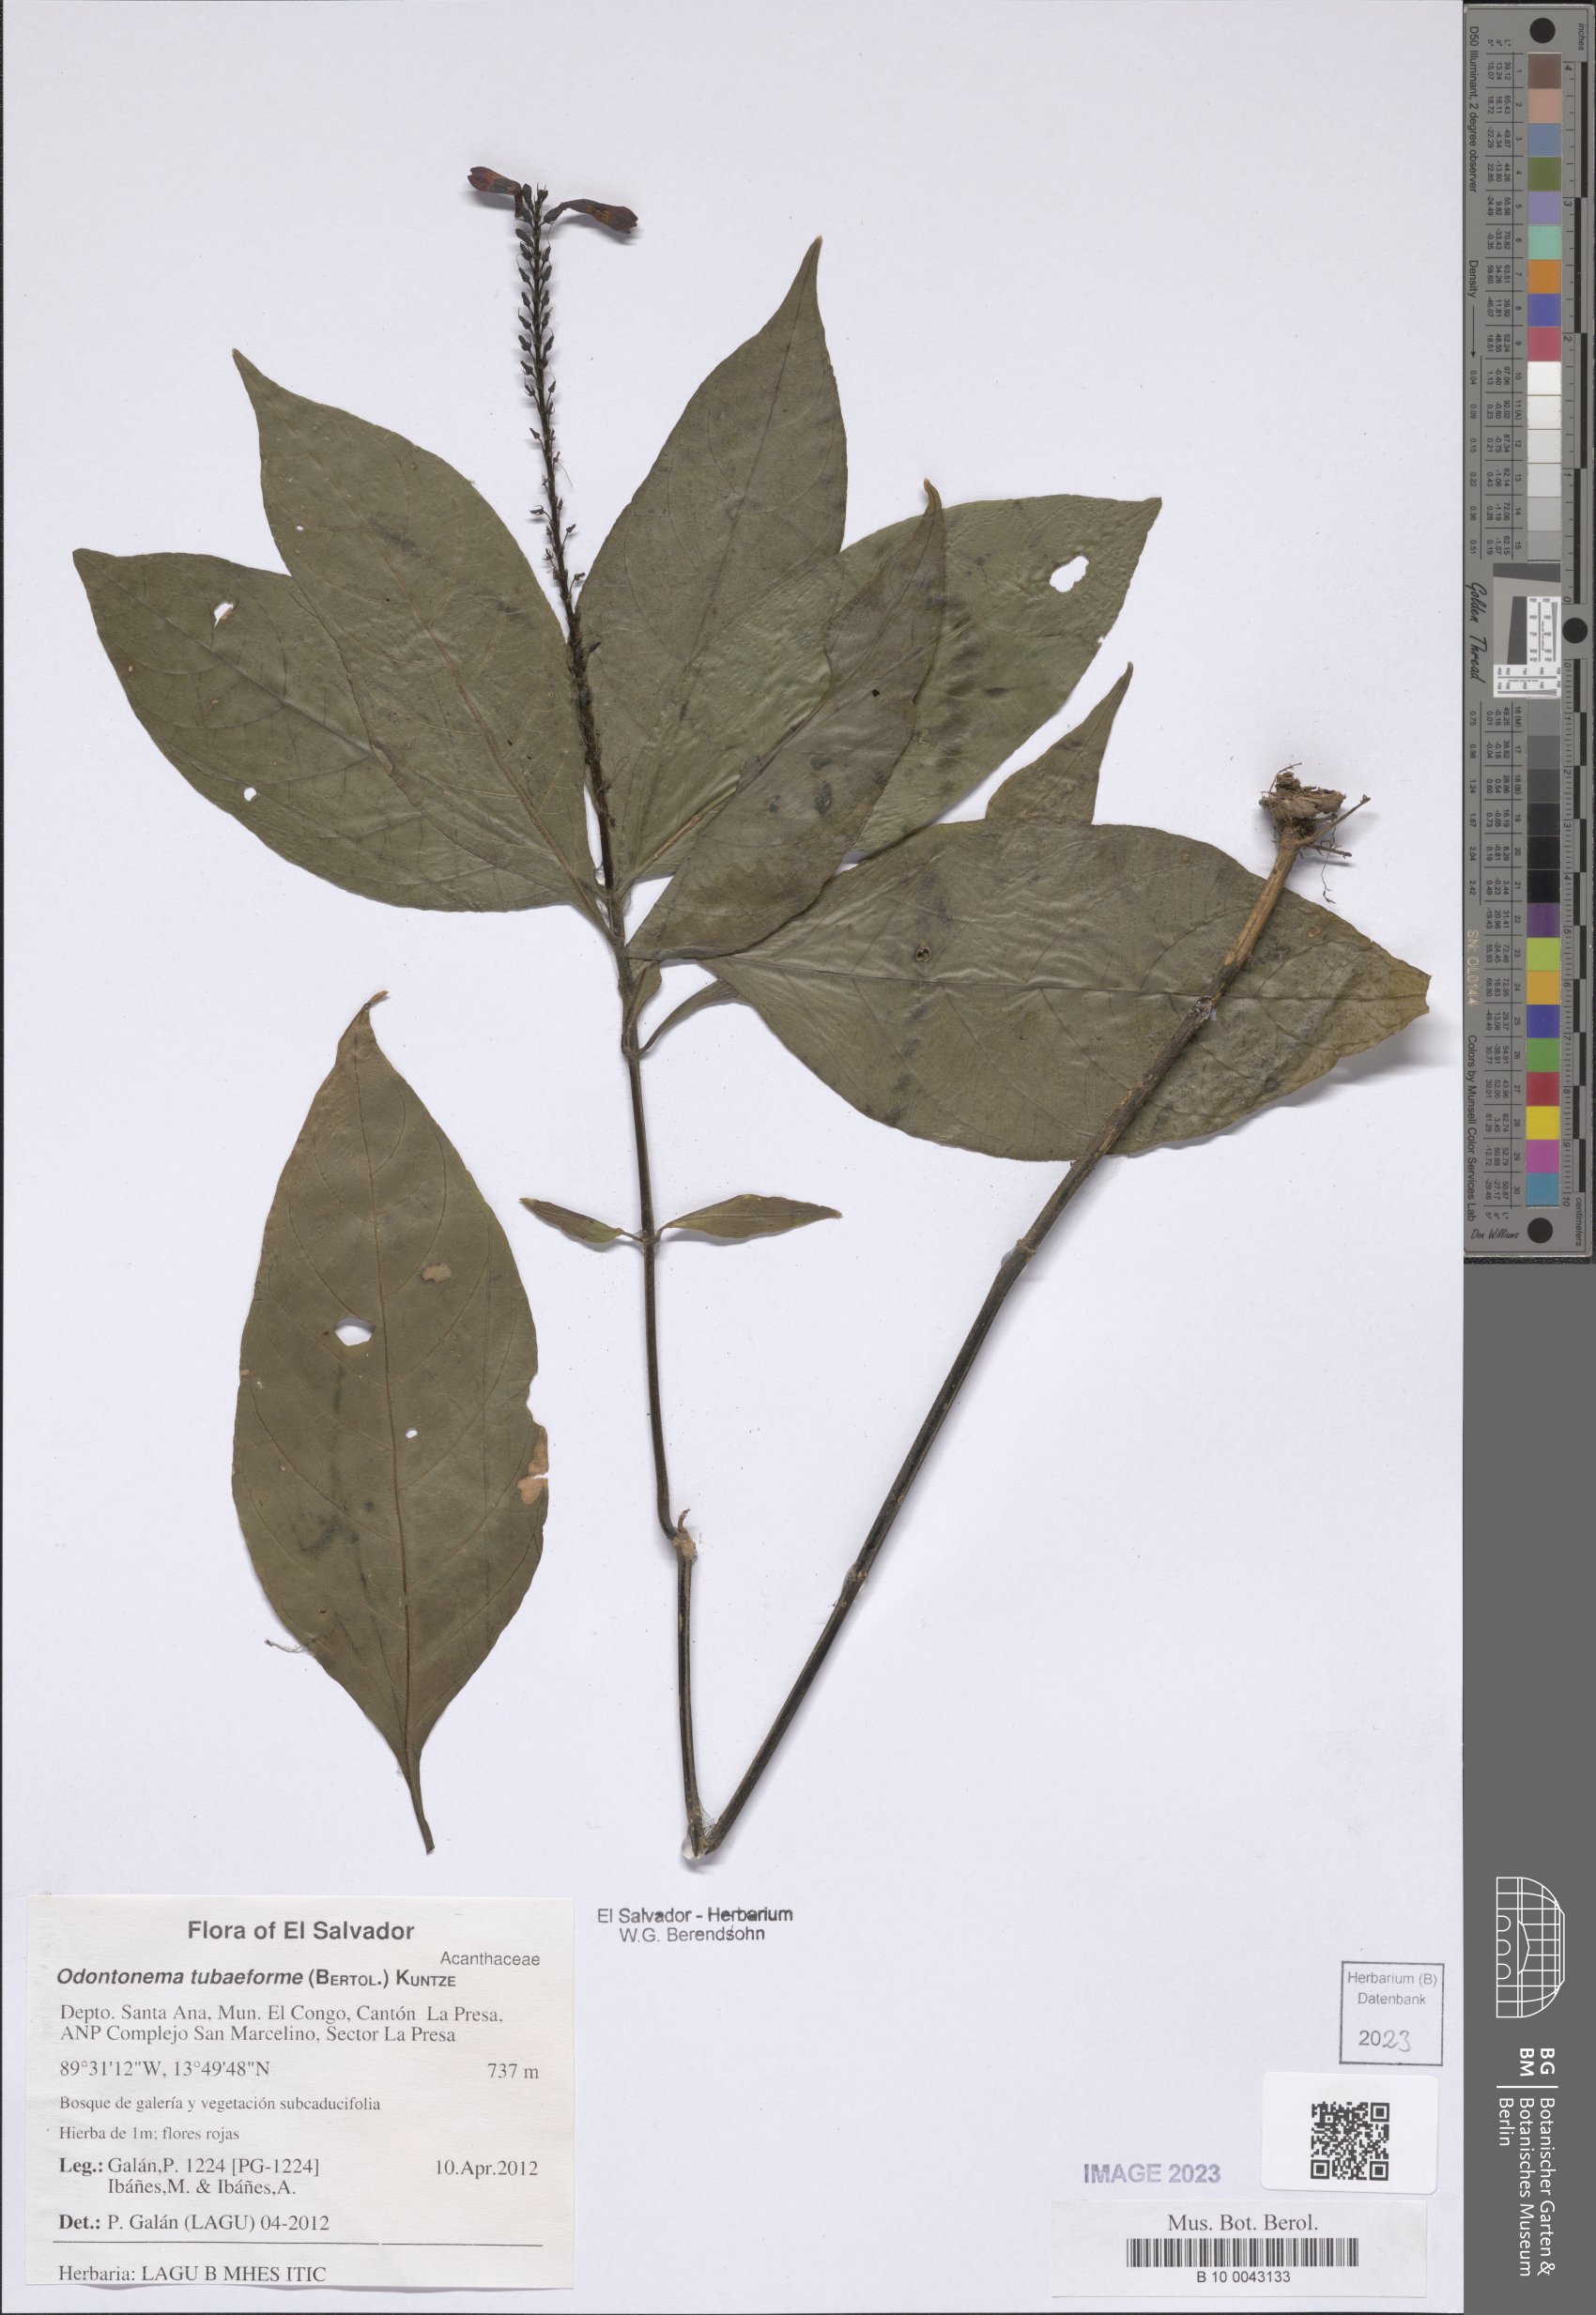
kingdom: Plantae
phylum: Tracheophyta
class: Magnoliopsida
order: Lamiales
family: Acanthaceae
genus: Odontonema
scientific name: Odontonema tubaeforme
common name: Firespike
